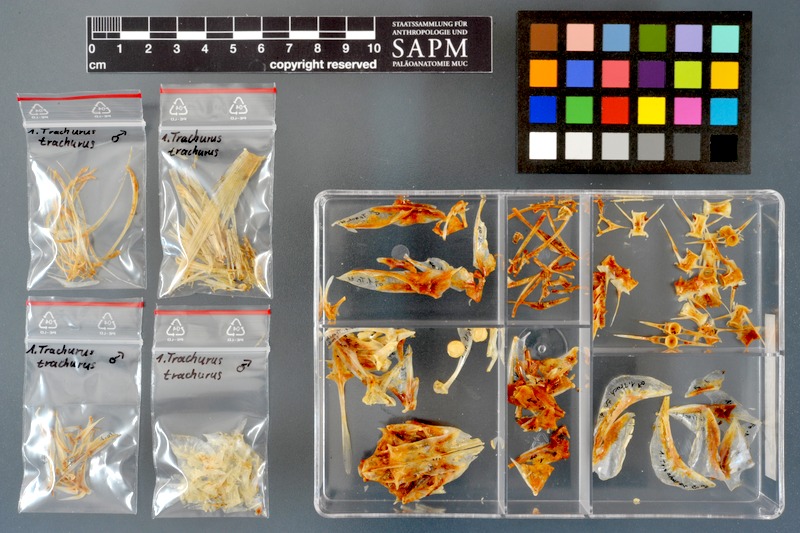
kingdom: Animalia
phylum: Chordata
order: Perciformes
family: Carangidae
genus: Trachurus
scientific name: Trachurus trachurus
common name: Horse mackerel
